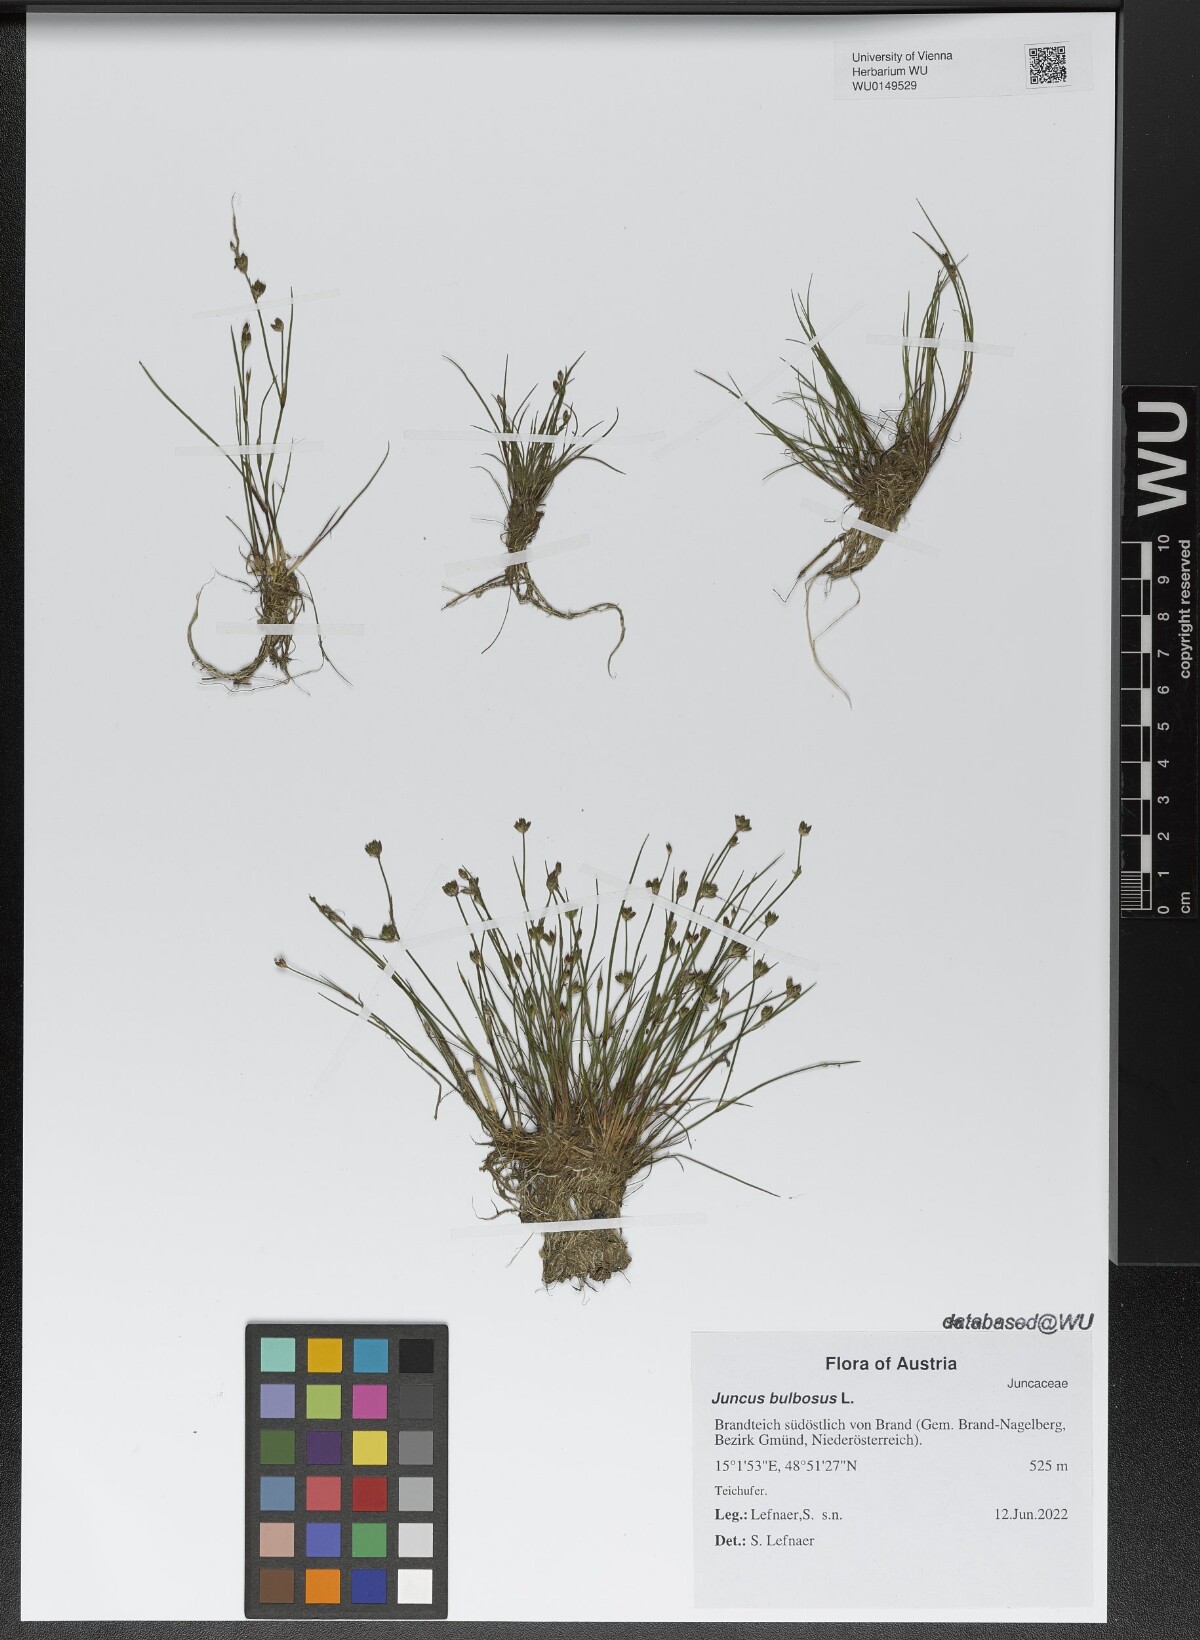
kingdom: Plantae
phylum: Tracheophyta
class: Liliopsida
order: Poales
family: Juncaceae
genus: Juncus
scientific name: Juncus bulbosus
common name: Bulbous rush
